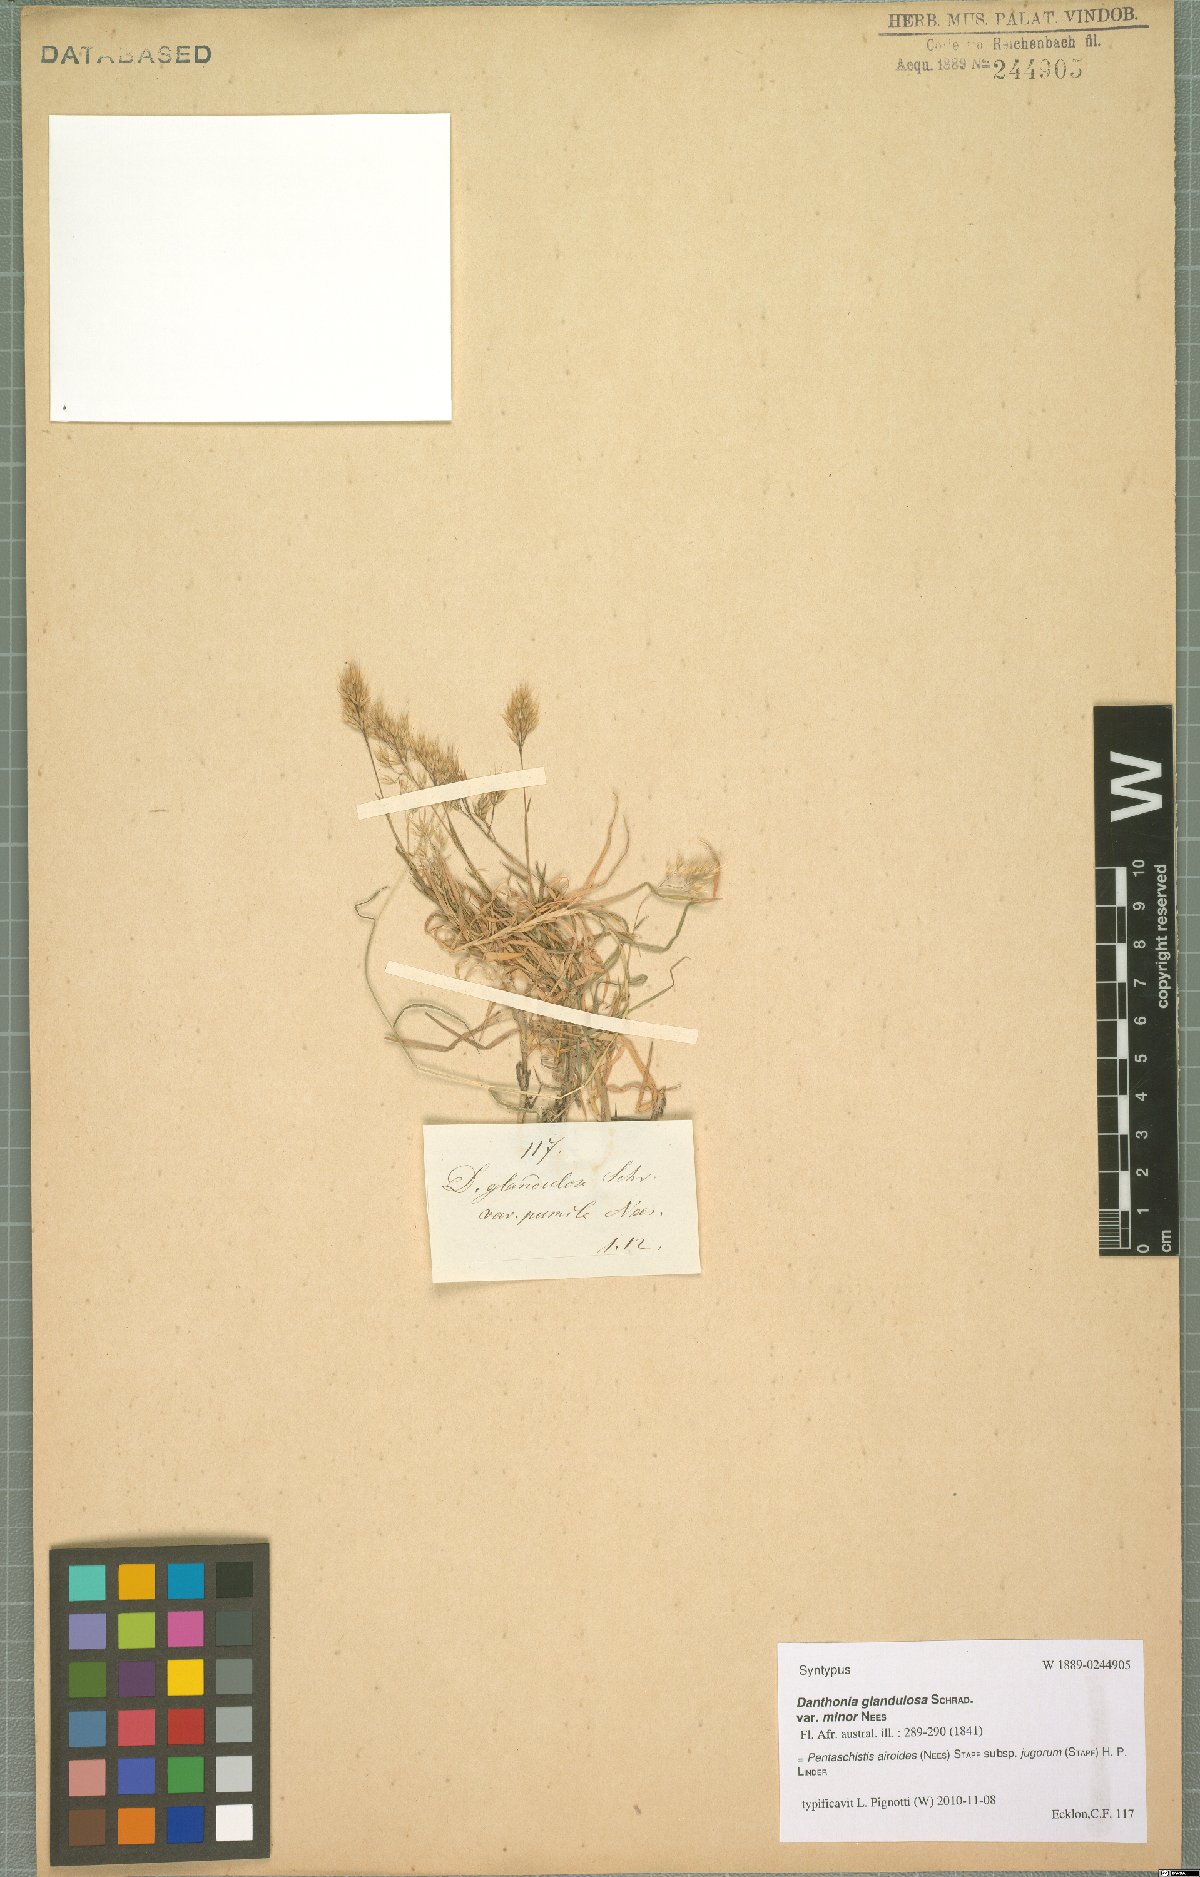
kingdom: Plantae
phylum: Tracheophyta
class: Liliopsida
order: Poales
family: Poaceae
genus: Pentameris
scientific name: Pentameris airoides
